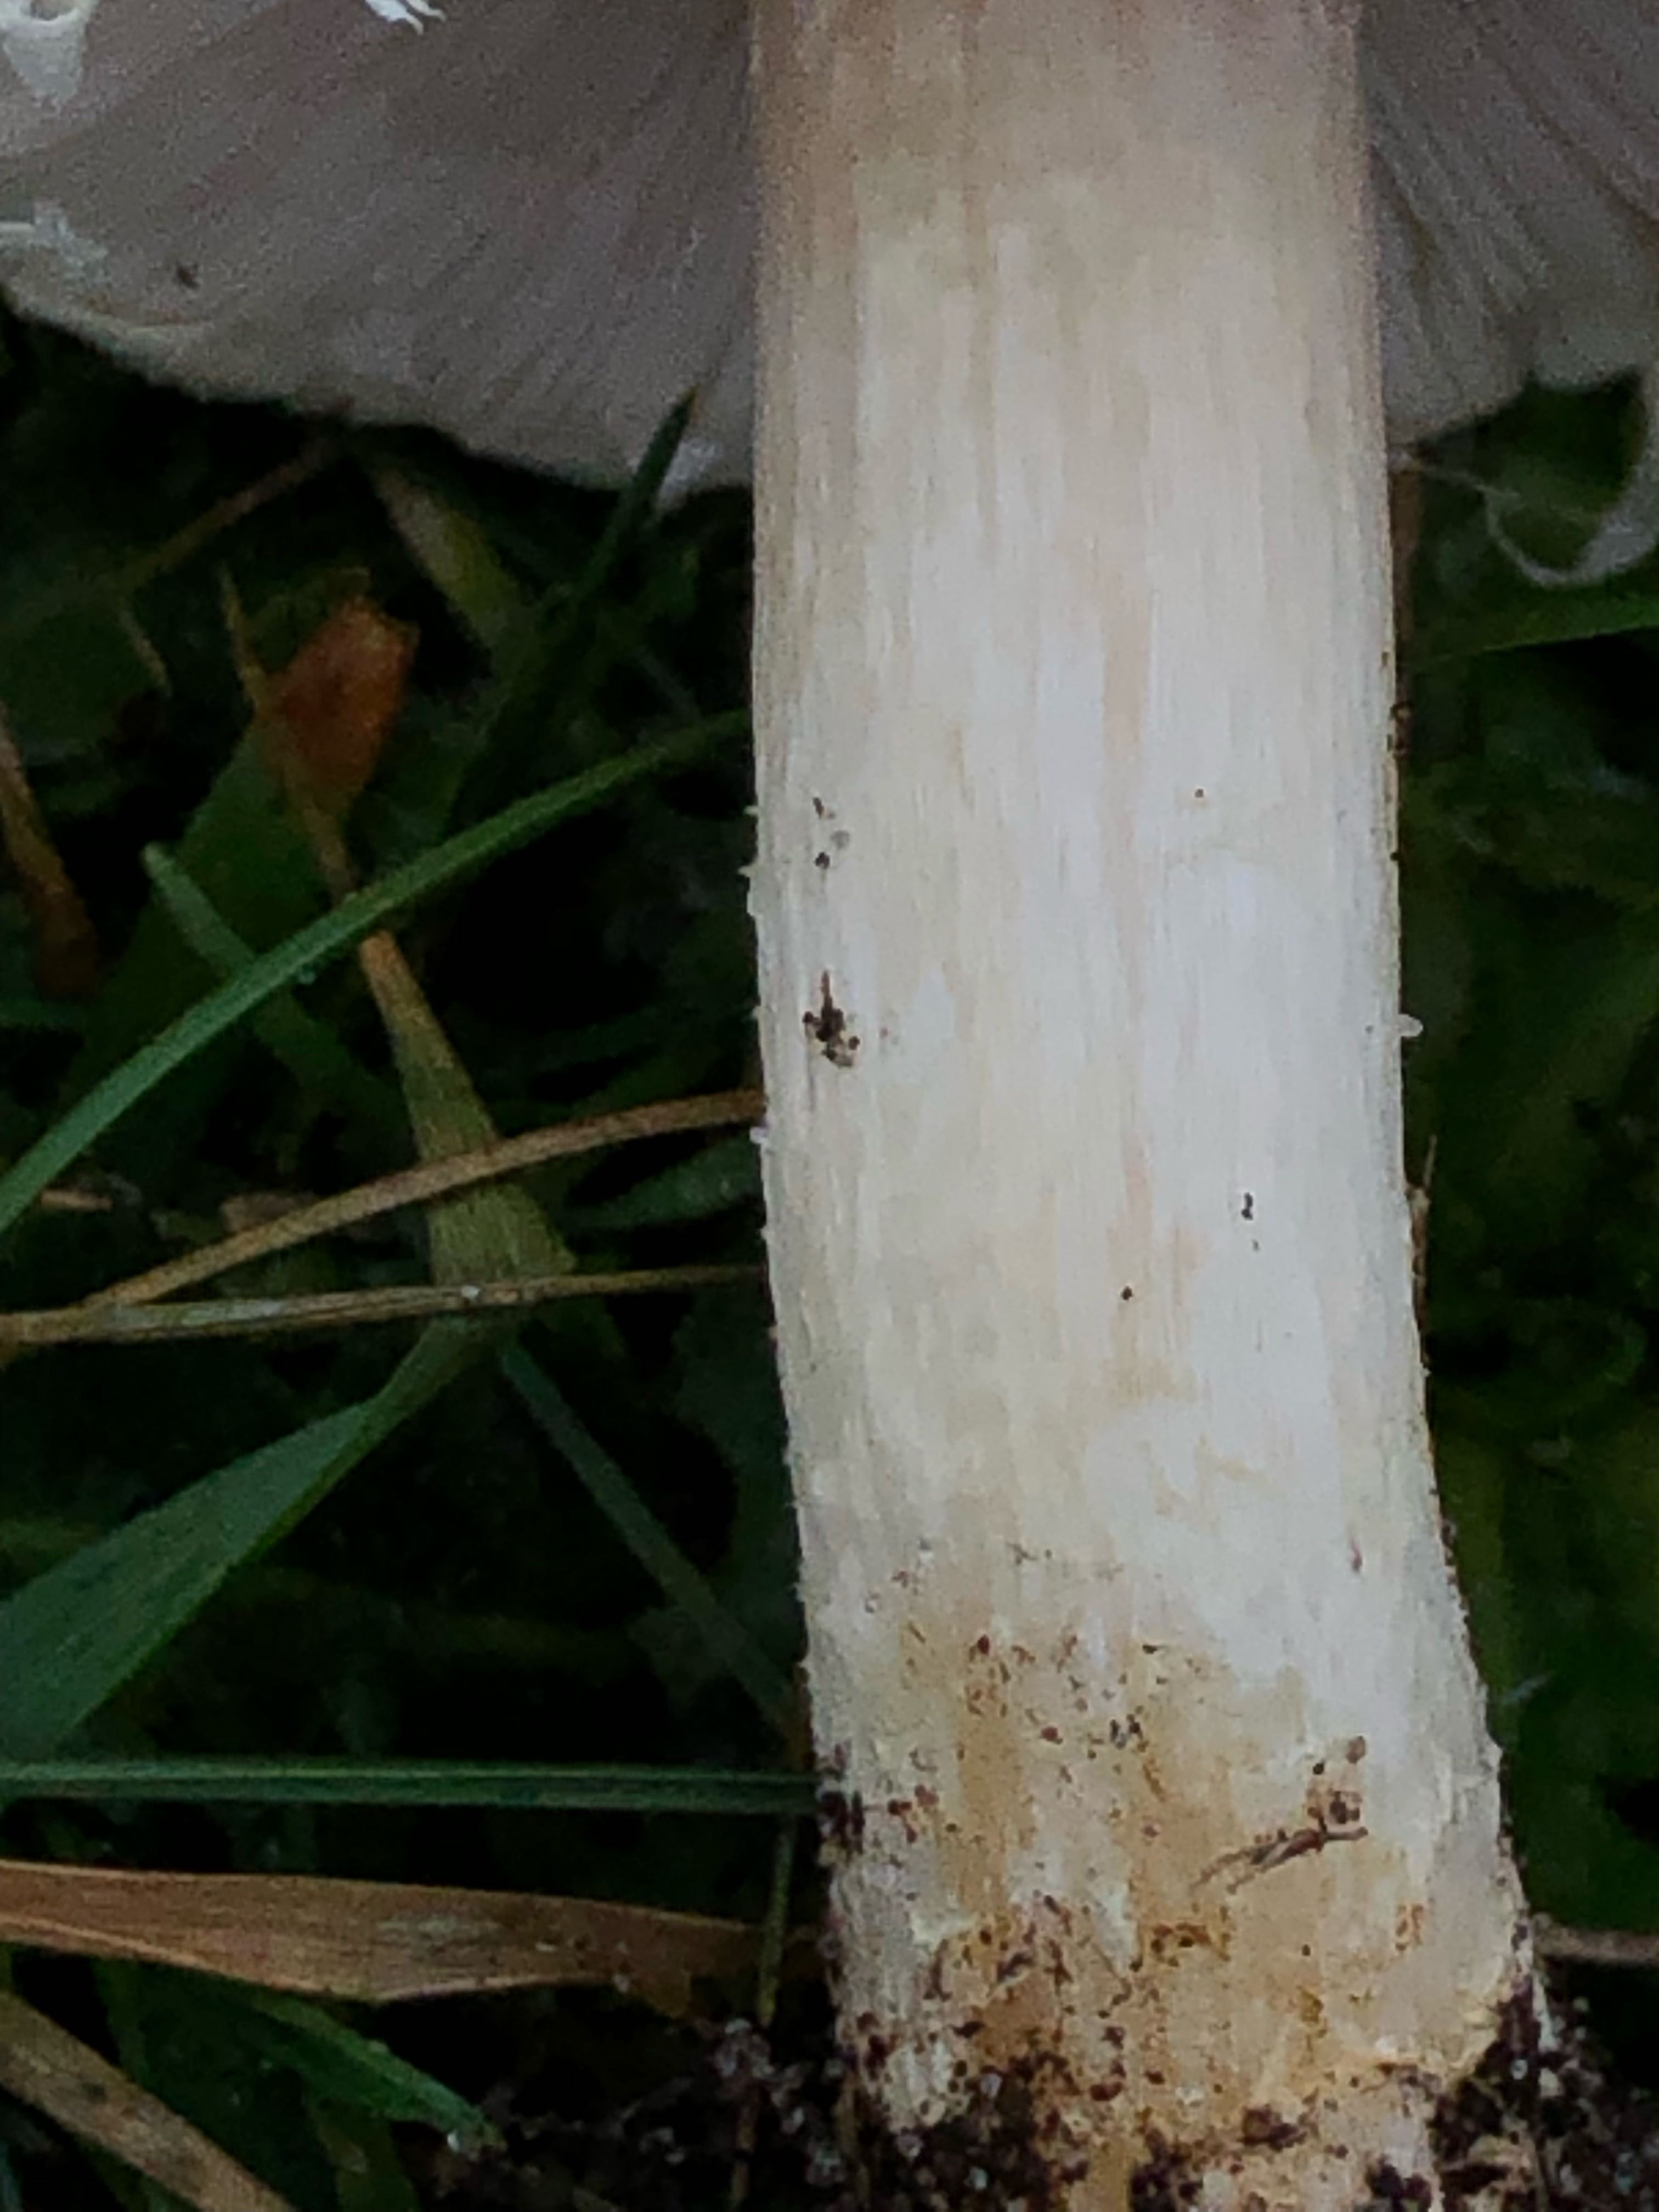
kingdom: Fungi
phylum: Basidiomycota
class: Agaricomycetes
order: Agaricales
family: Agaricaceae
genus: Agaricus
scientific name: Agaricus
